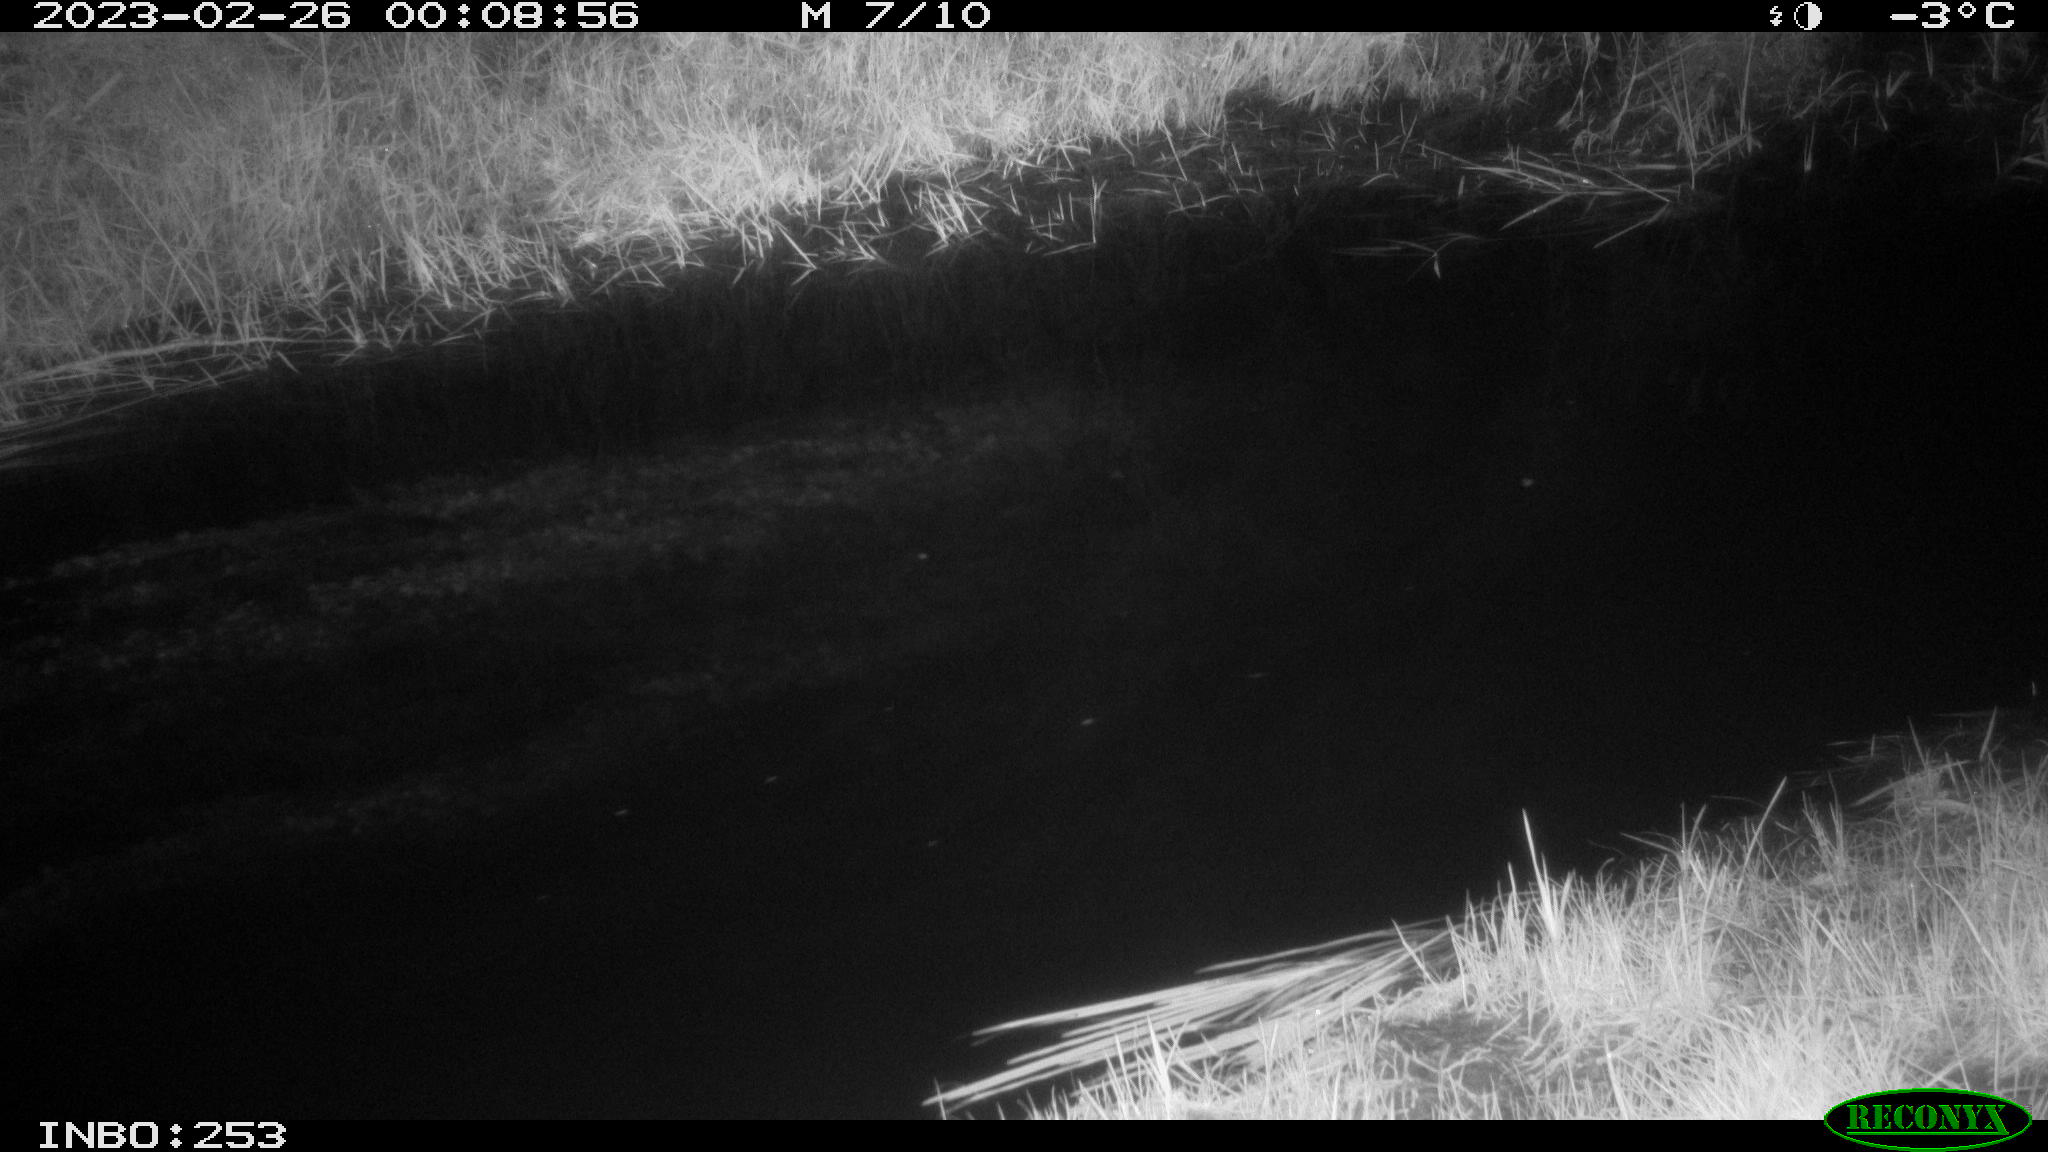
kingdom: Animalia
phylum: Chordata
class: Aves
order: Anseriformes
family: Anatidae
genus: Anas
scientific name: Anas
